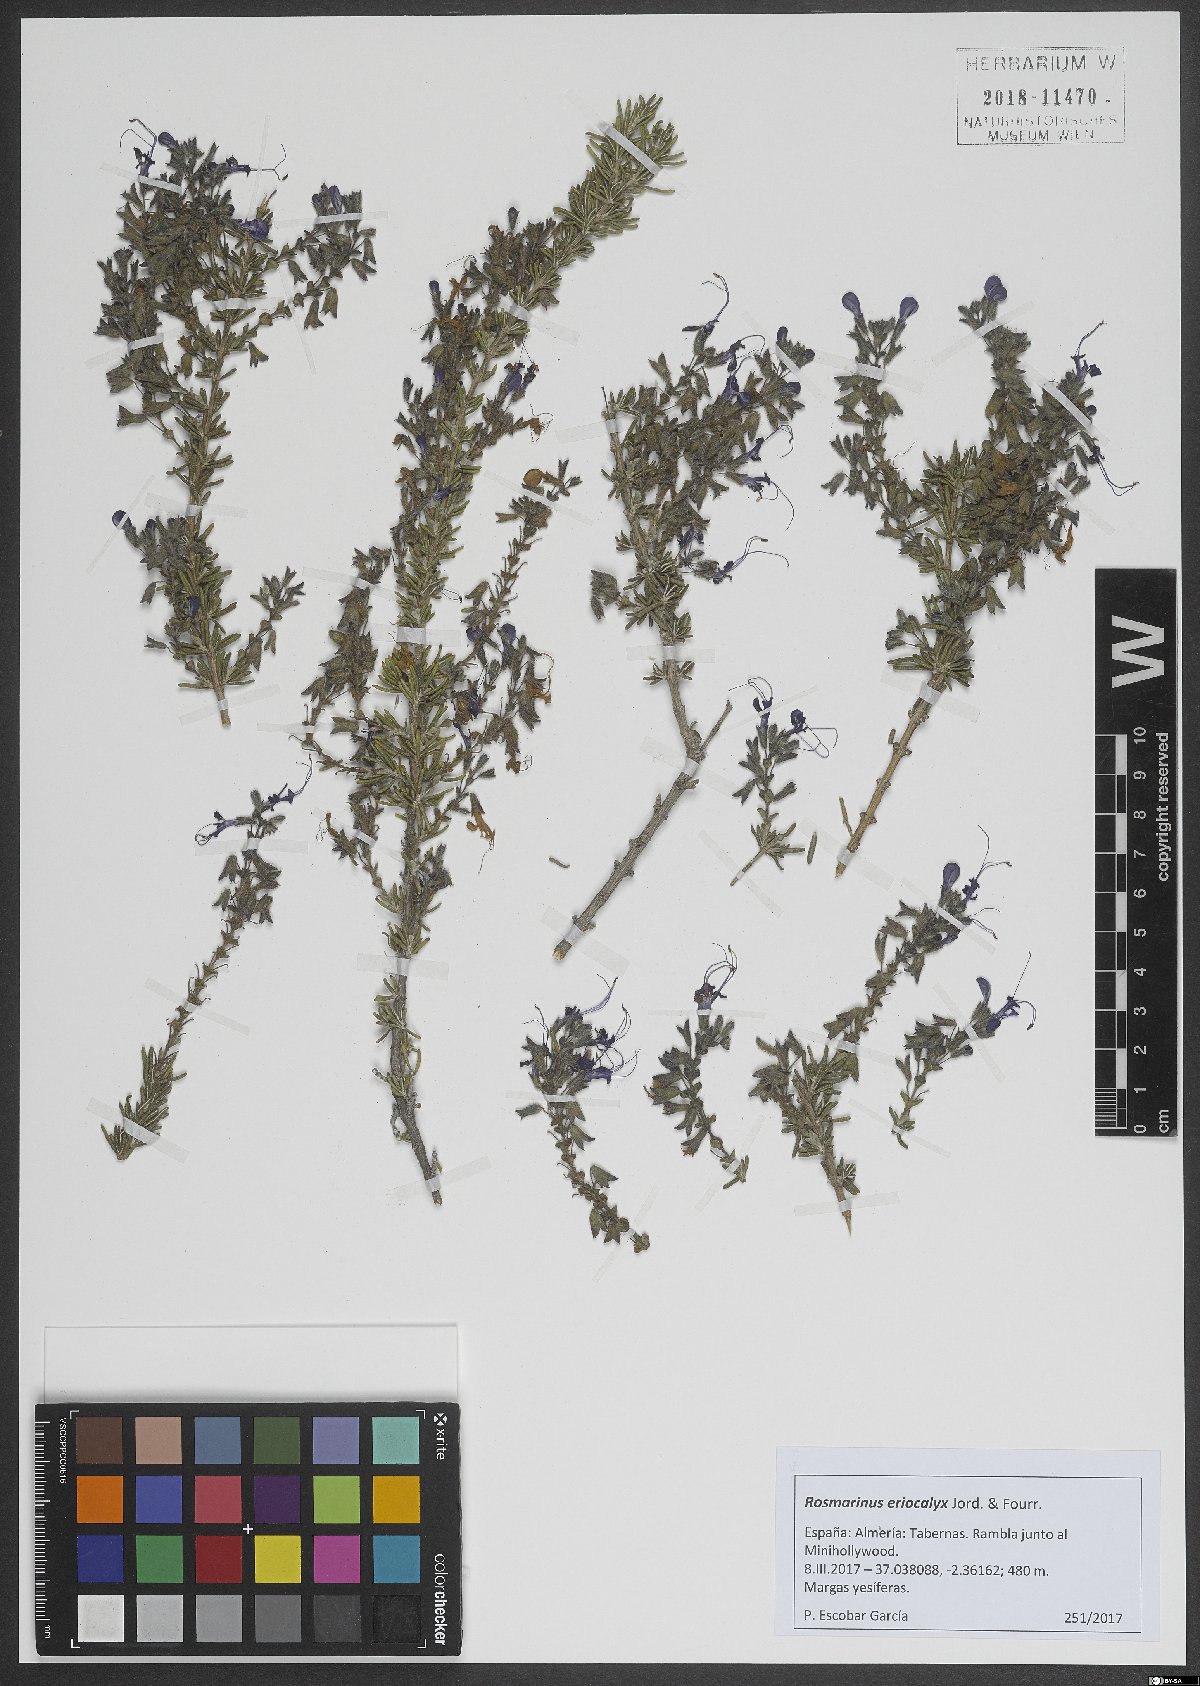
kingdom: Plantae
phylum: Tracheophyta
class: Magnoliopsida
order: Lamiales
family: Lamiaceae
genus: Salvia
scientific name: Salvia jordanii
